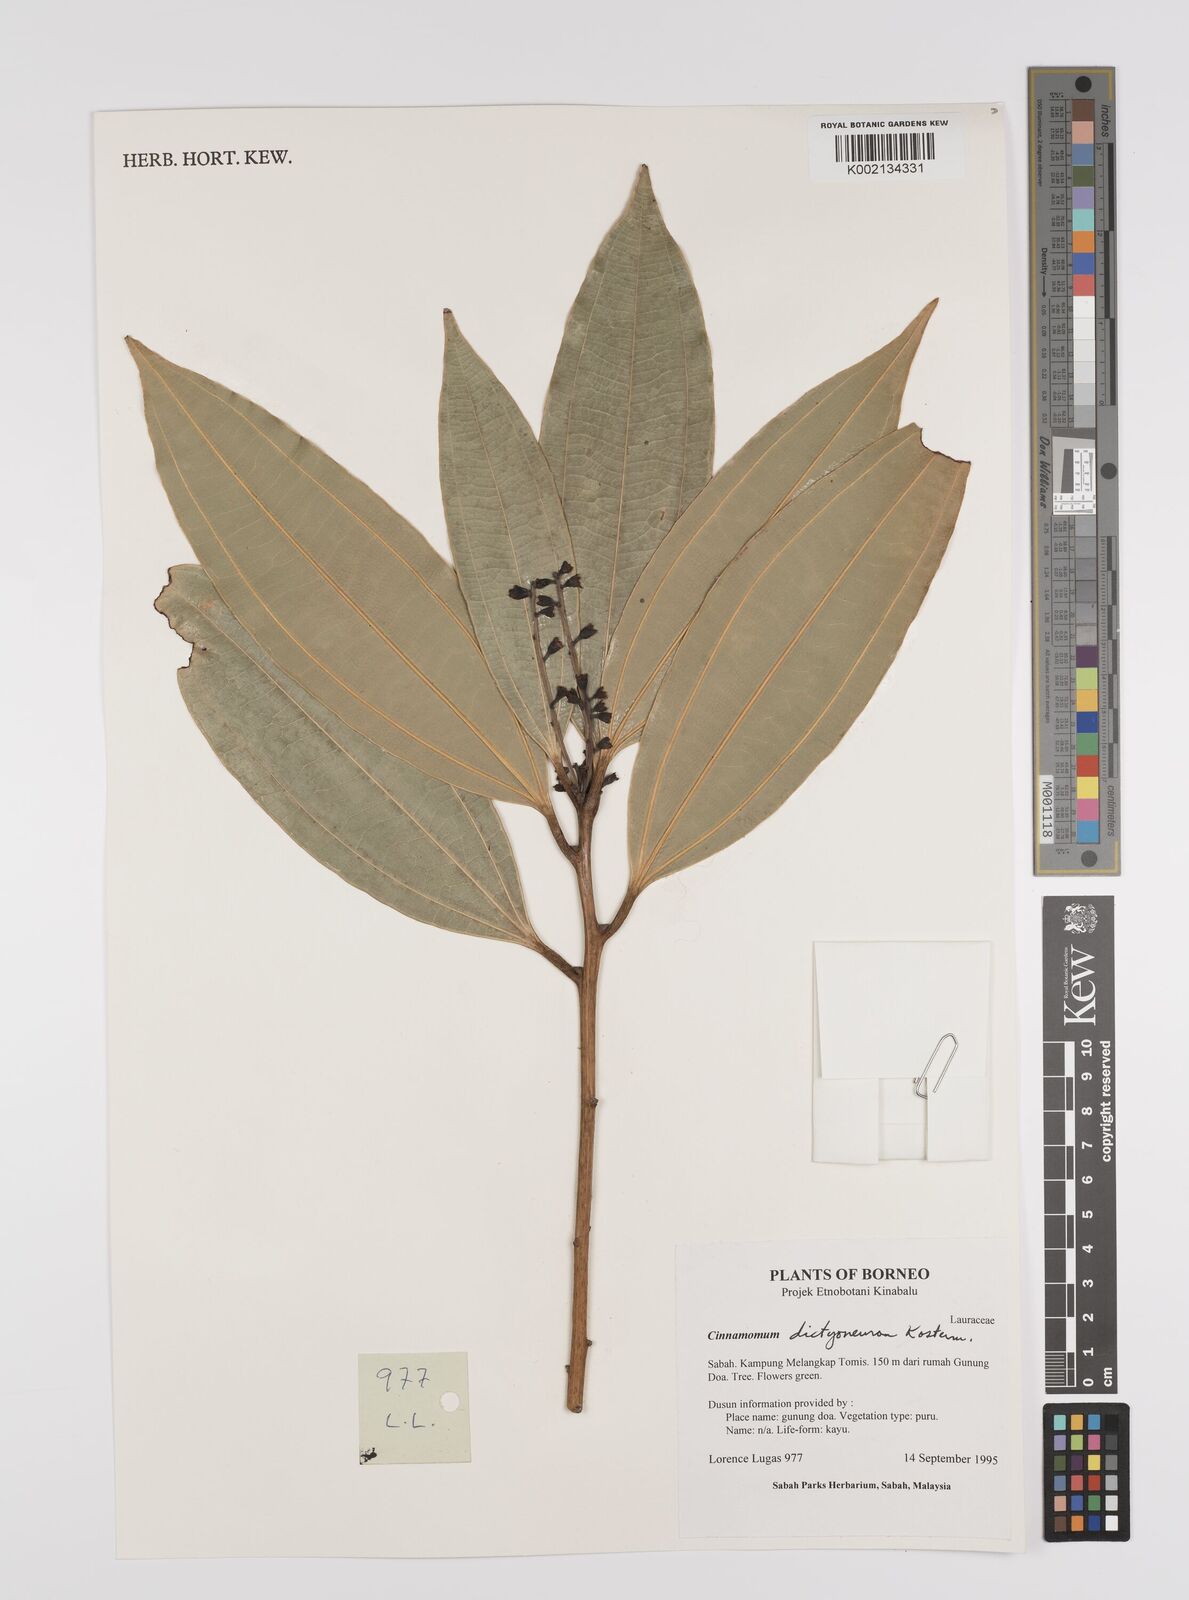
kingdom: Plantae
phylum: Tracheophyta
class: Magnoliopsida
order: Laurales
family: Lauraceae
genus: Cinnamomum
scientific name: Cinnamomum racemosum
